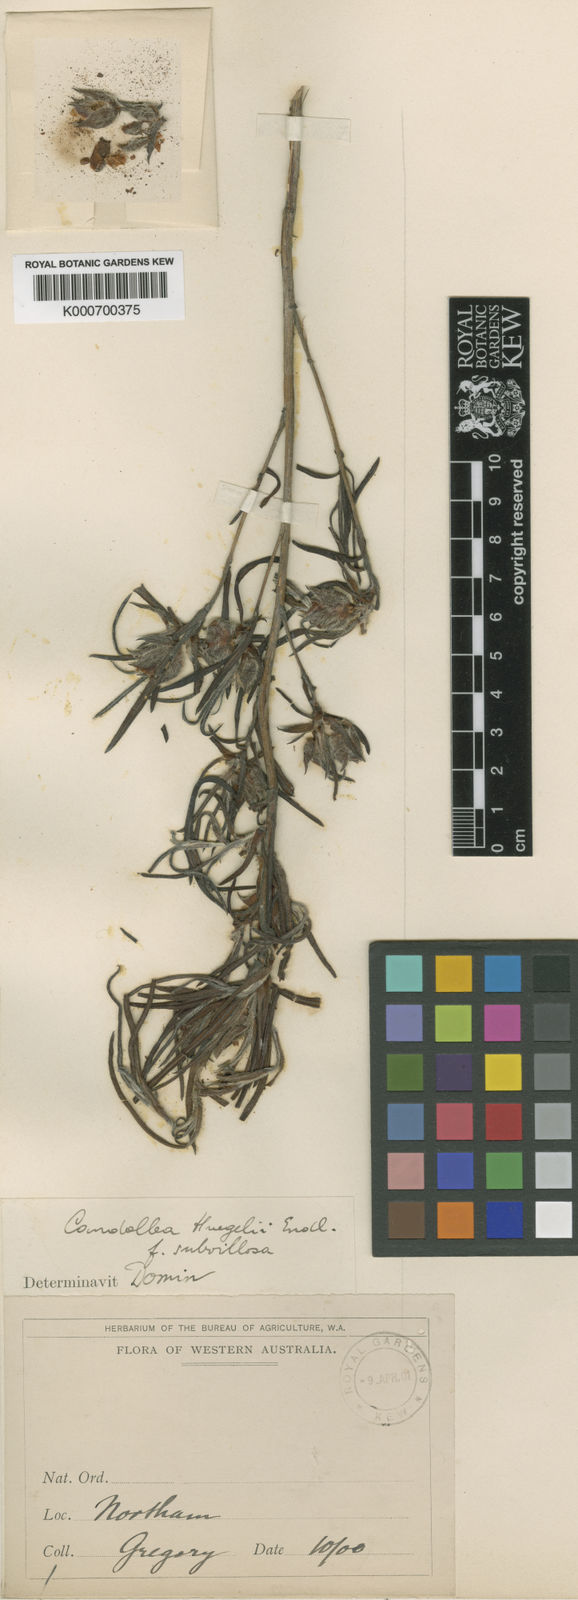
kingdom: Plantae
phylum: Tracheophyta
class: Magnoliopsida
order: Dilleniales
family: Dilleniaceae
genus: Hibbertia
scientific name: Hibbertia striata
